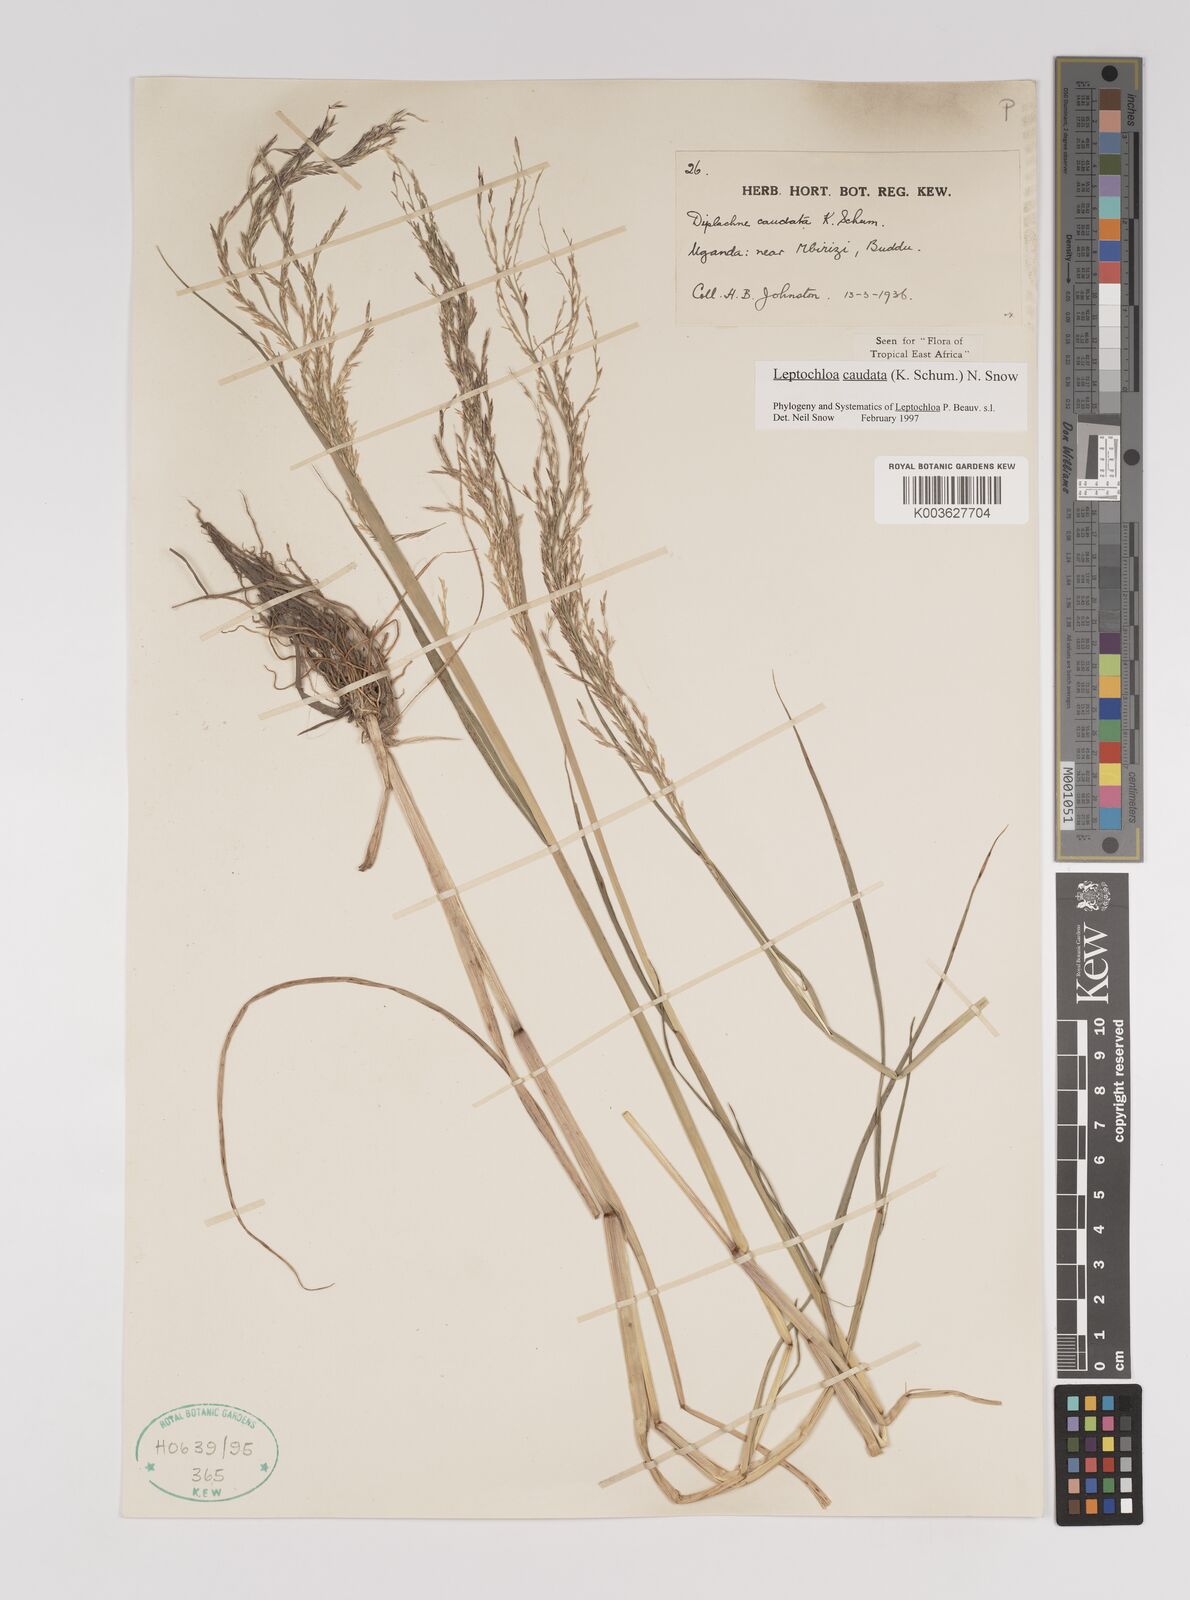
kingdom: Plantae
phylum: Tracheophyta
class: Liliopsida
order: Poales
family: Poaceae
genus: Leptochloa
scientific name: Leptochloa caudata
